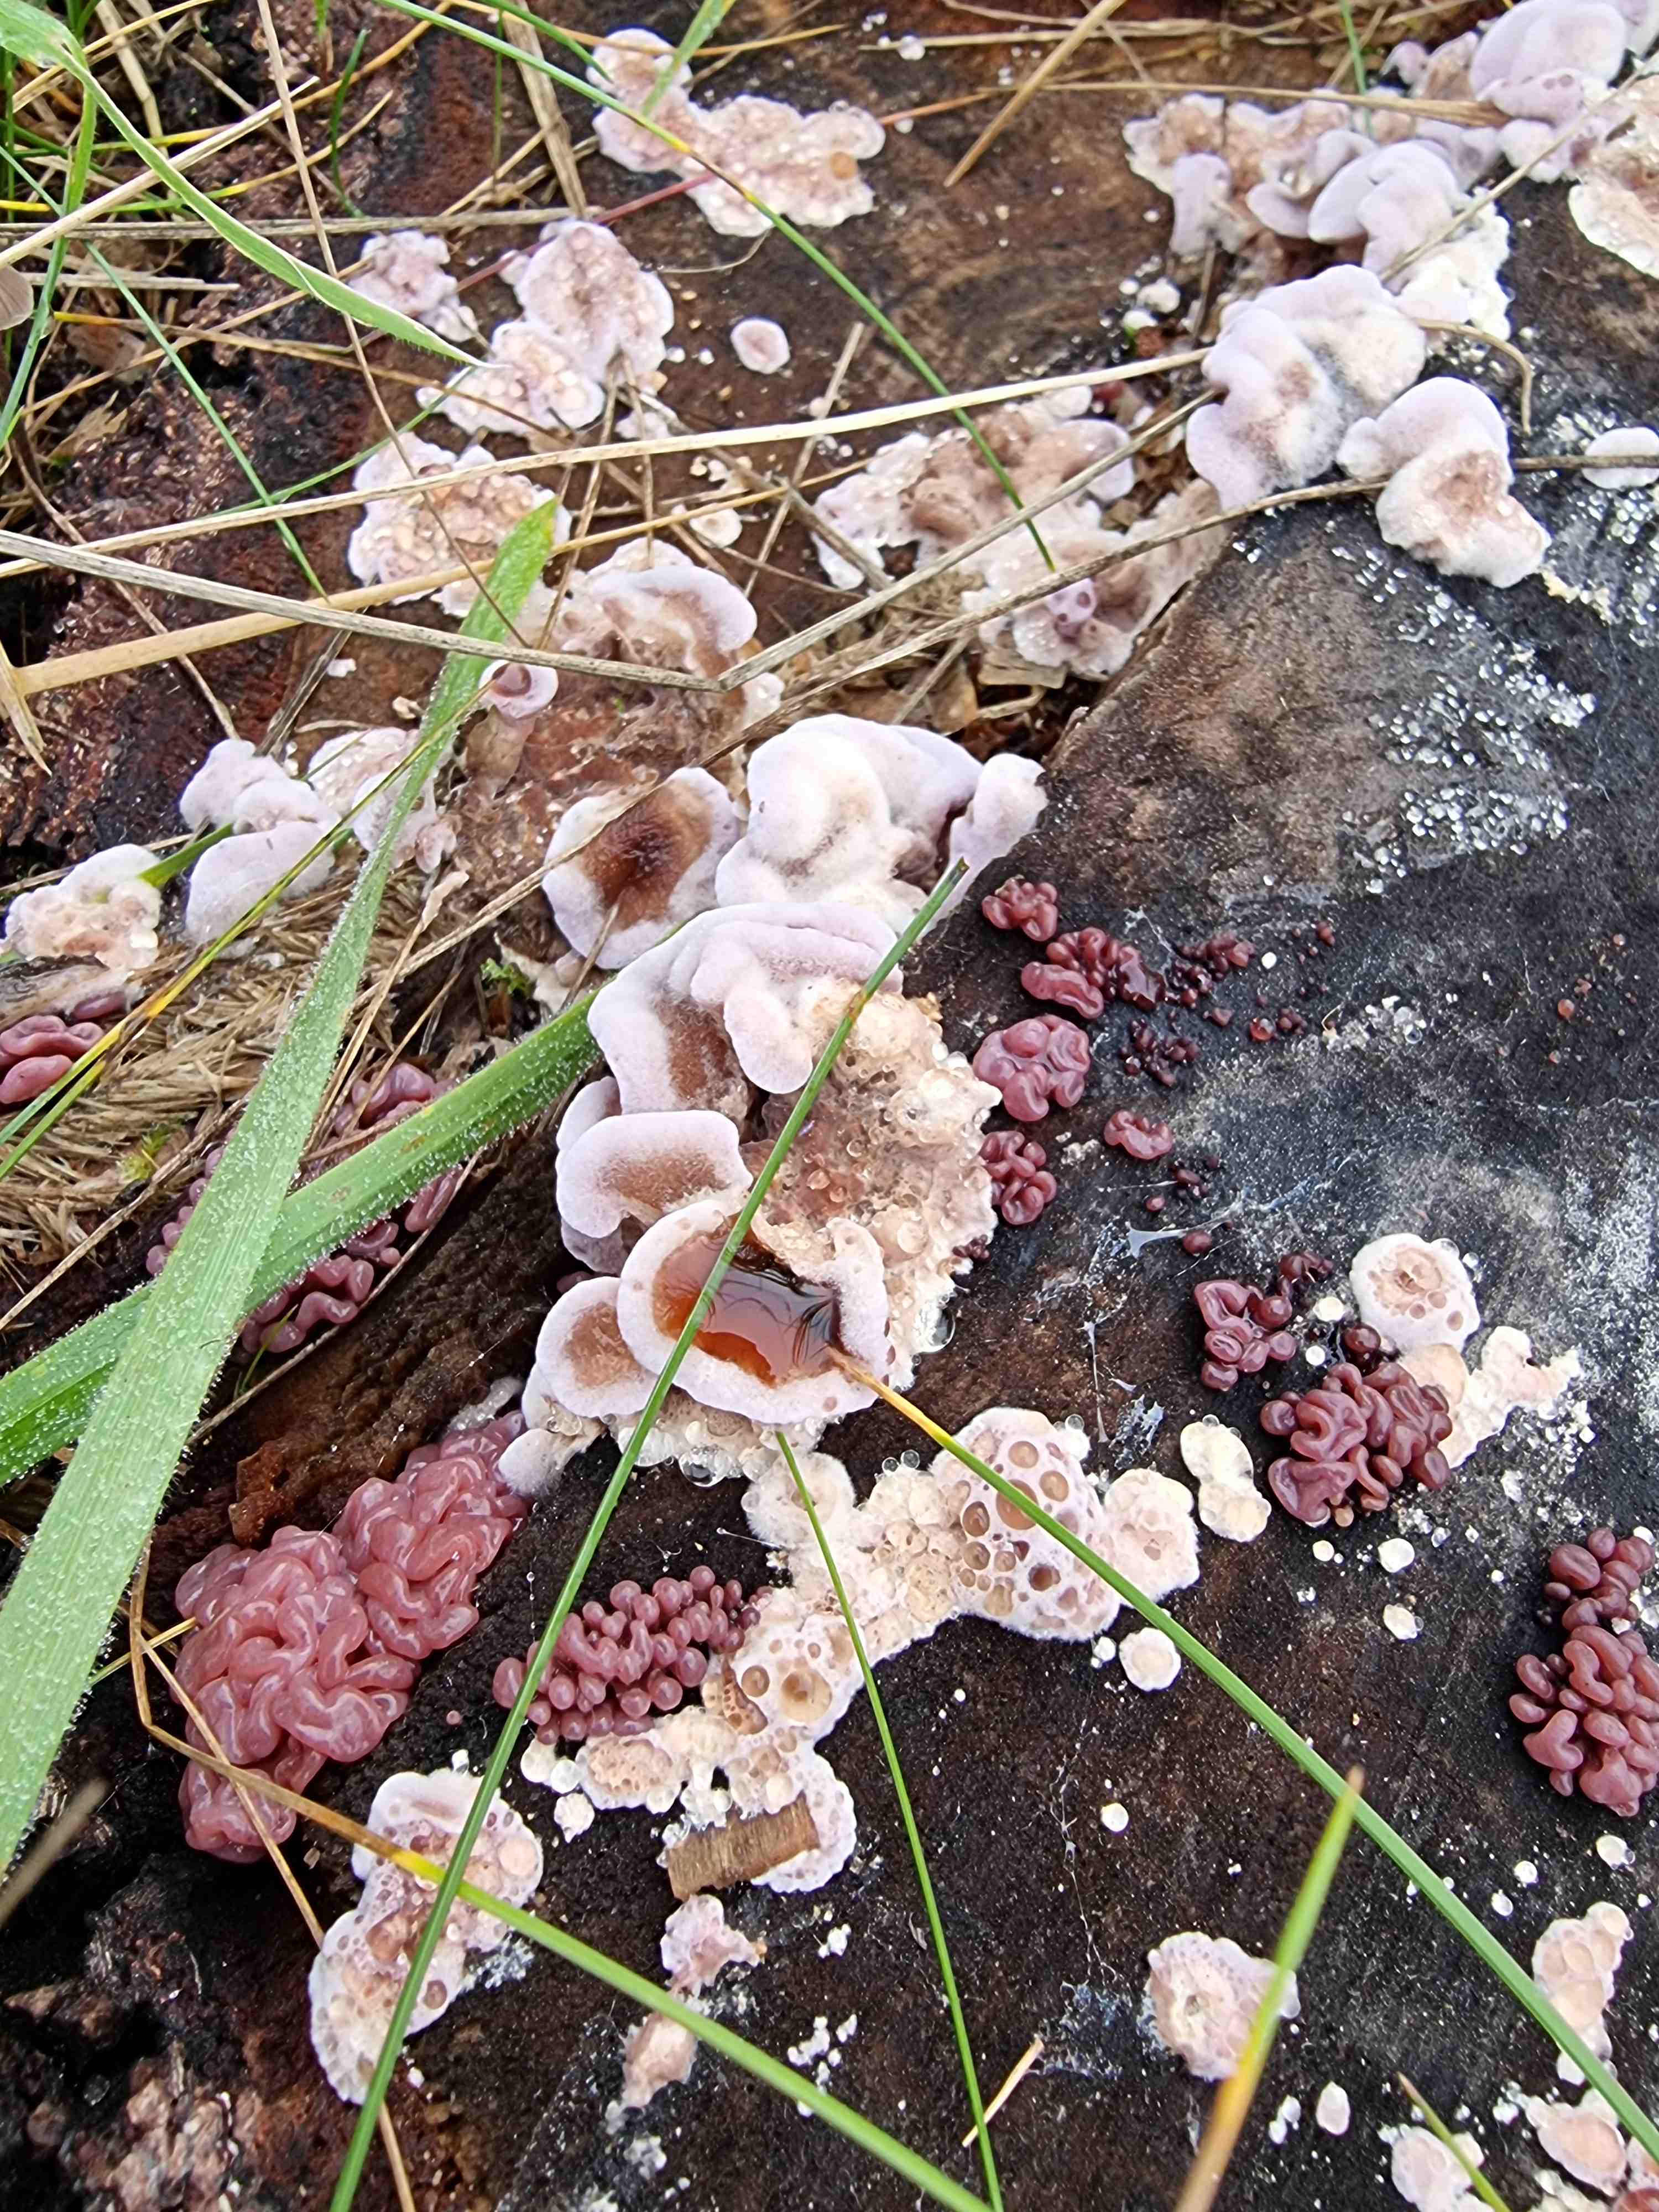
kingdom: Fungi
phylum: Ascomycota
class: Leotiomycetes
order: Helotiales
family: Gelatinodiscaceae
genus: Ascocoryne
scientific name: Ascocoryne sarcoides
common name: rødlilla sejskive
